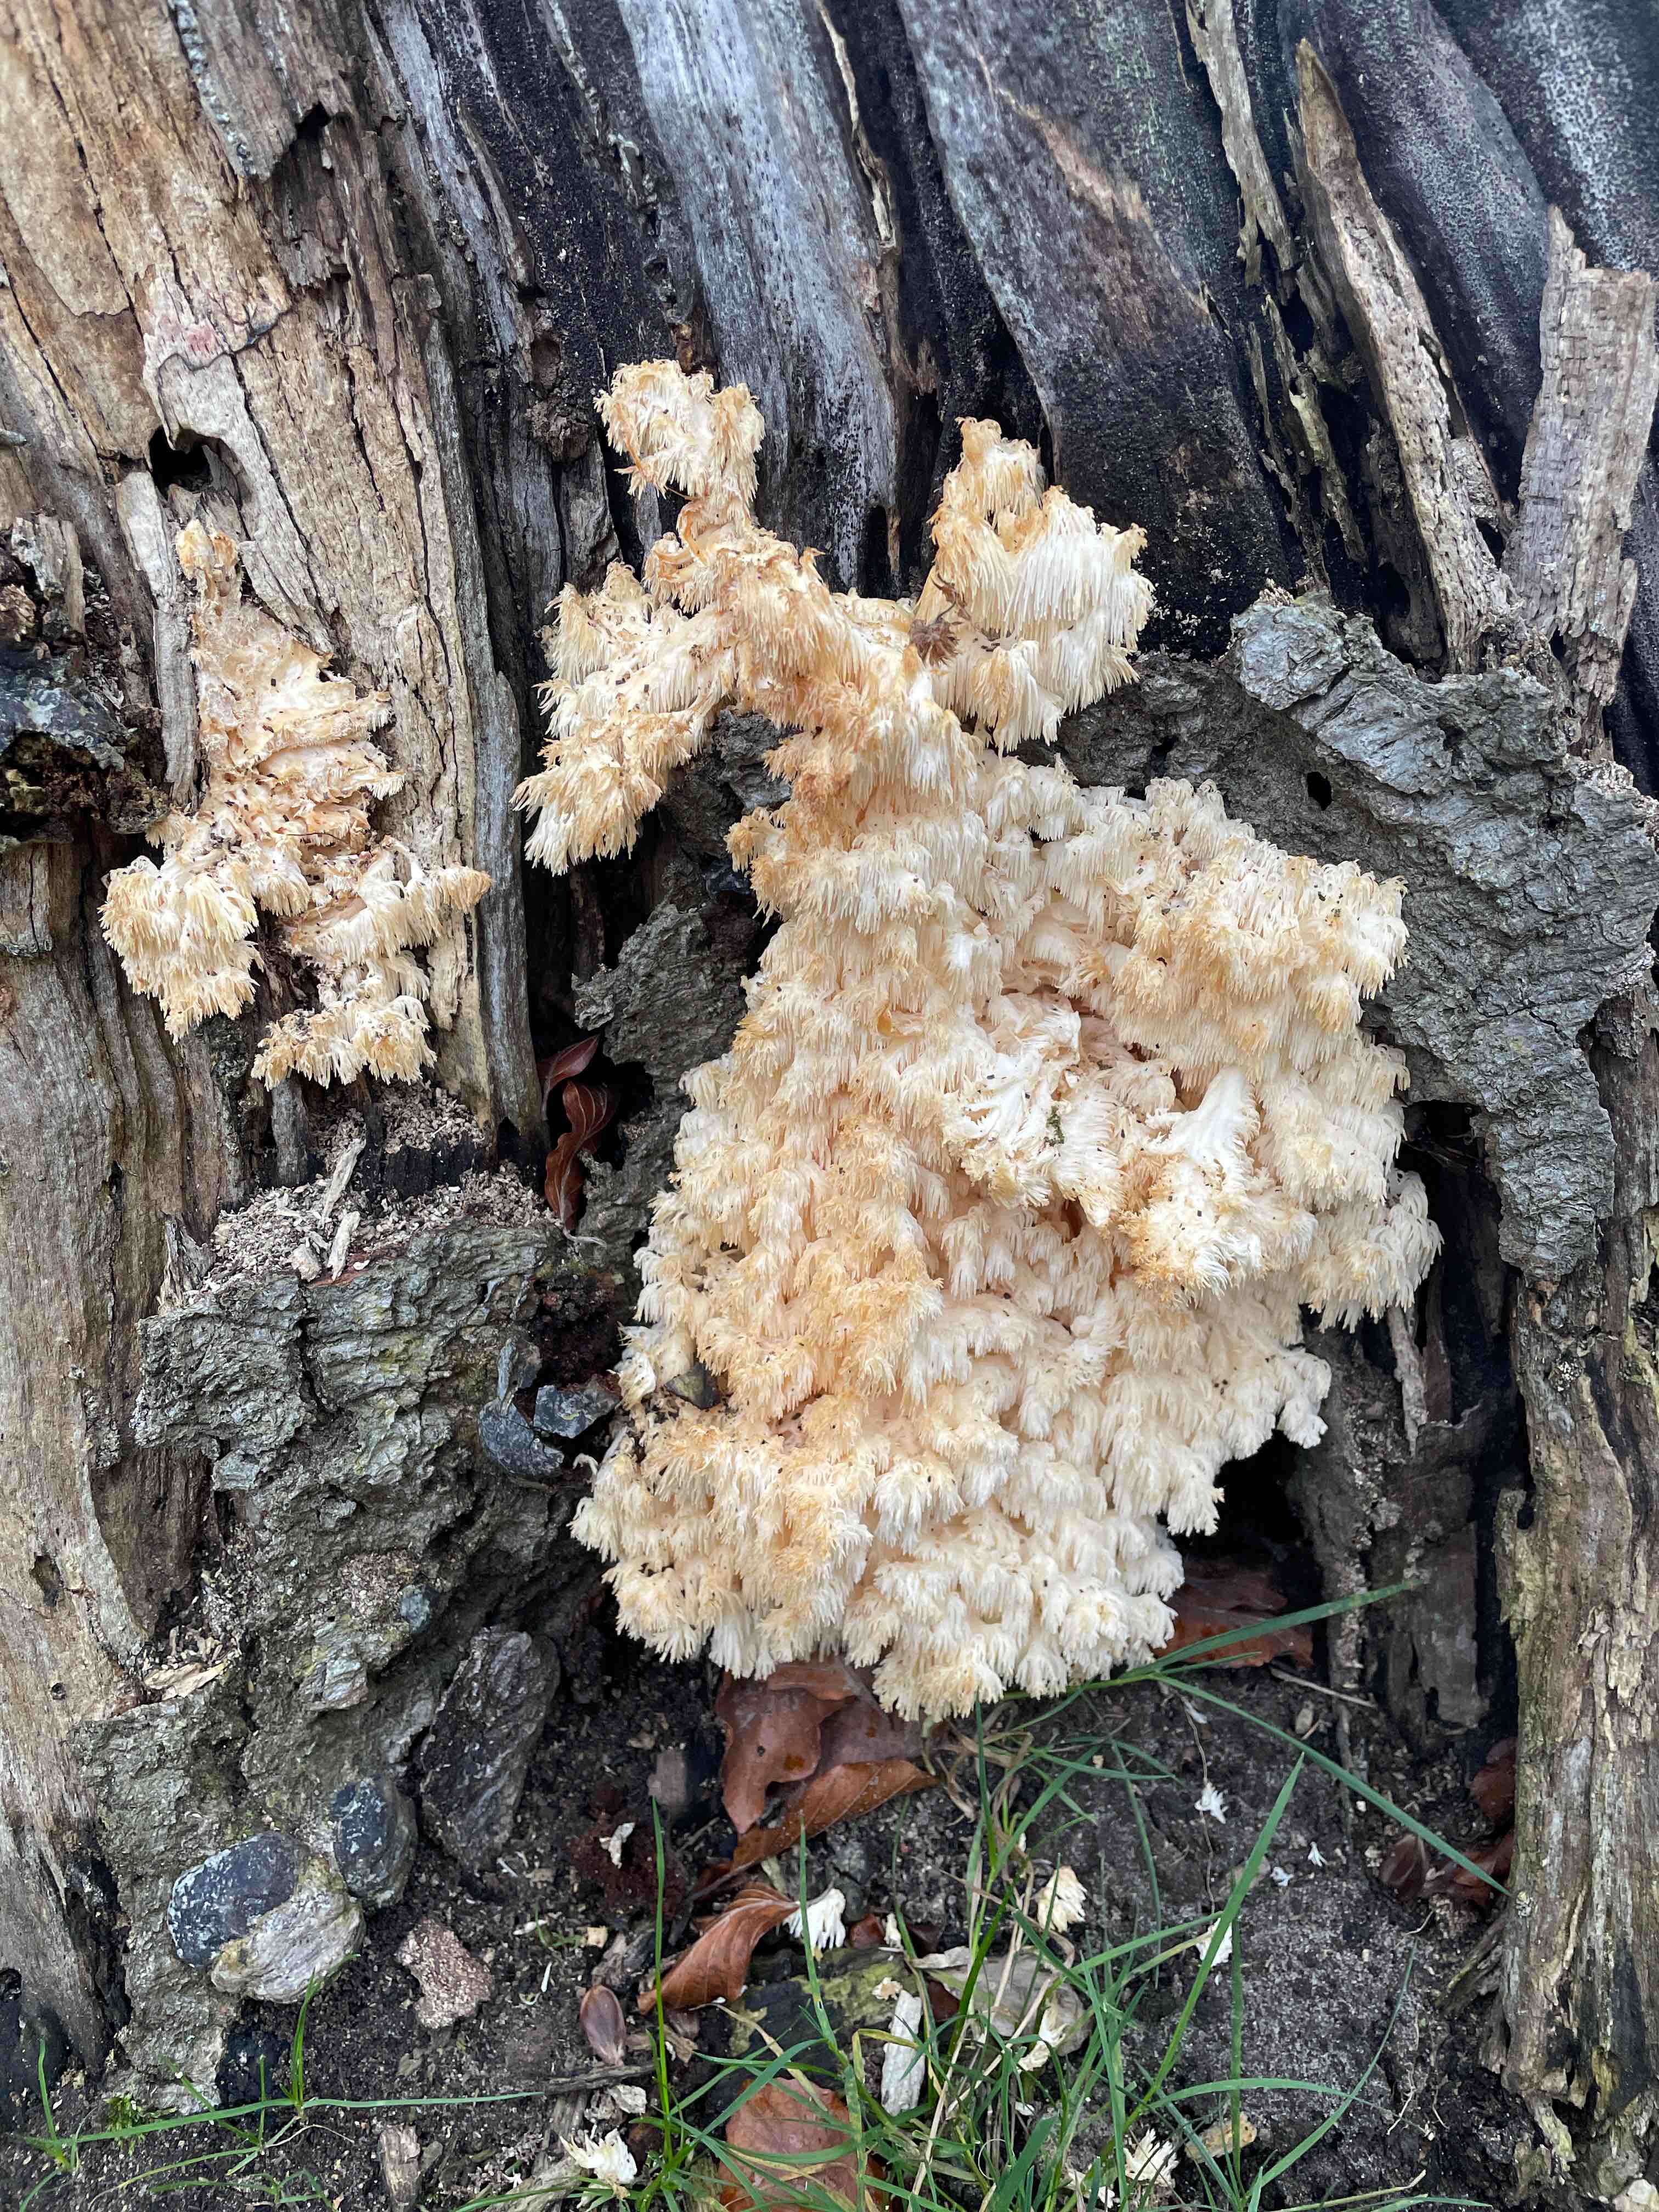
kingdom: Fungi
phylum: Basidiomycota
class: Agaricomycetes
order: Russulales
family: Hericiaceae
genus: Hericium
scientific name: Hericium coralloides
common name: koralpigsvamp
